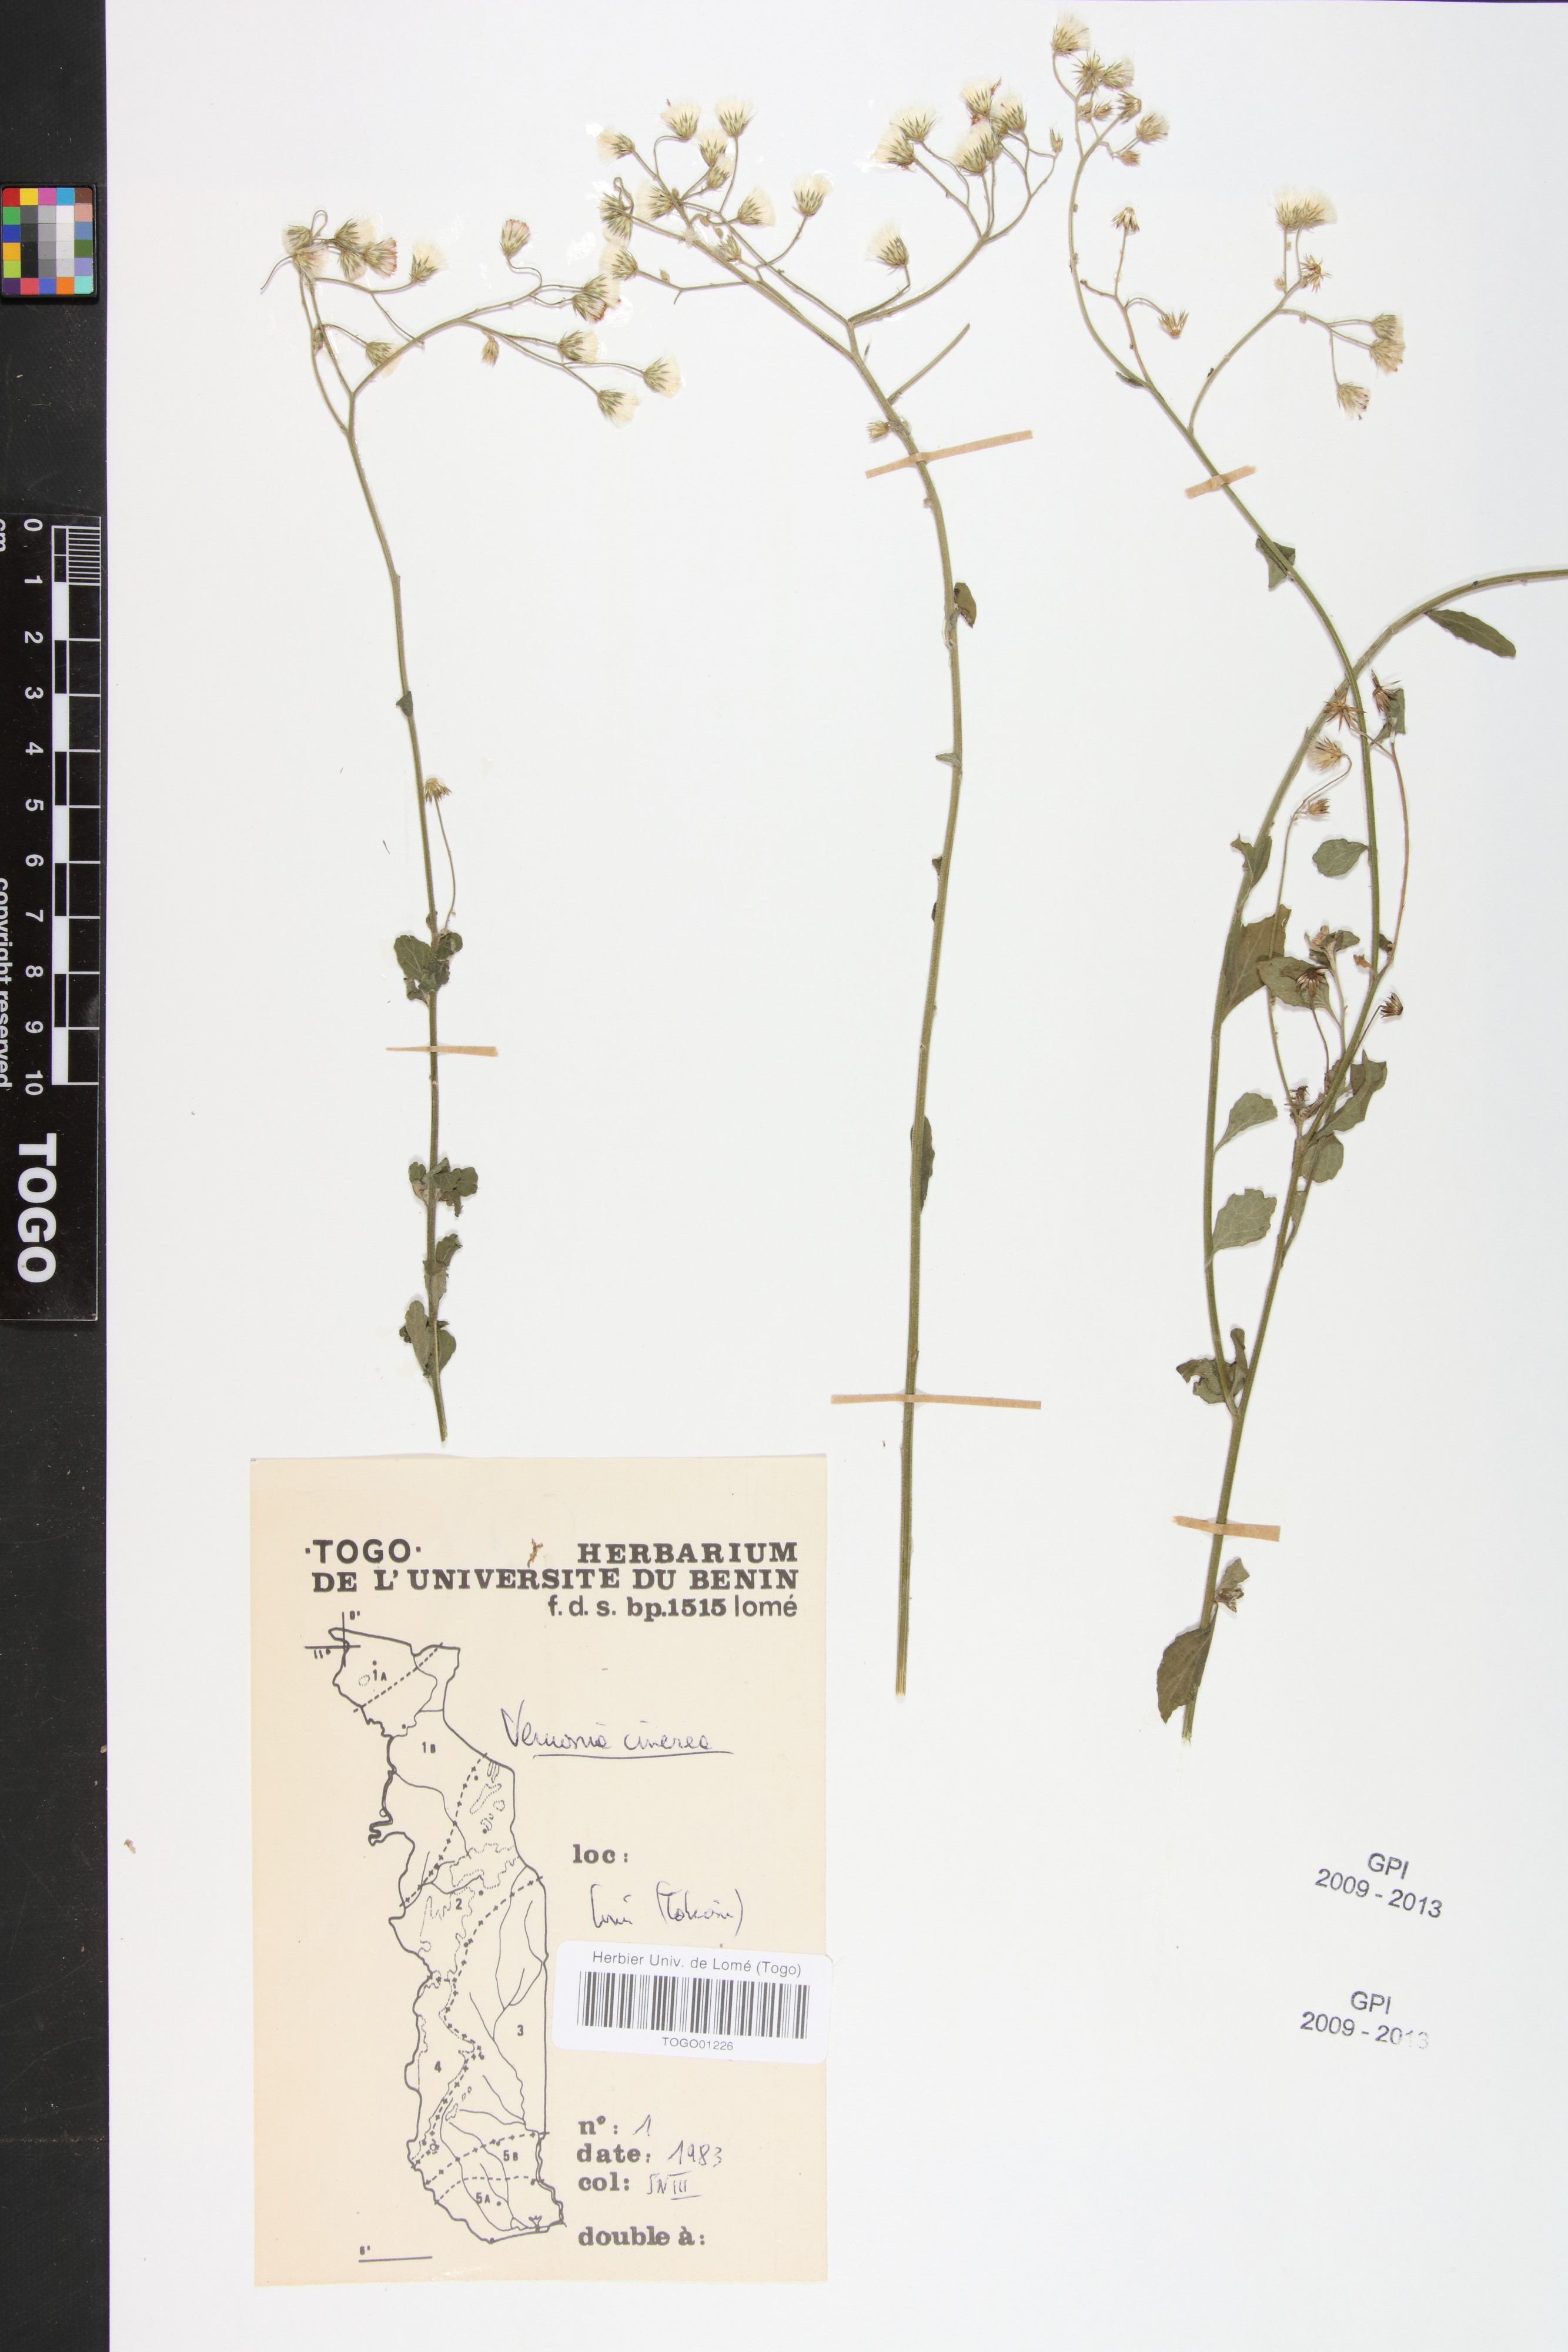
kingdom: Plantae
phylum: Tracheophyta
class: Magnoliopsida
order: Asterales
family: Asteraceae
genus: Cyanthillium
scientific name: Cyanthillium cinereum
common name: Little ironweed
